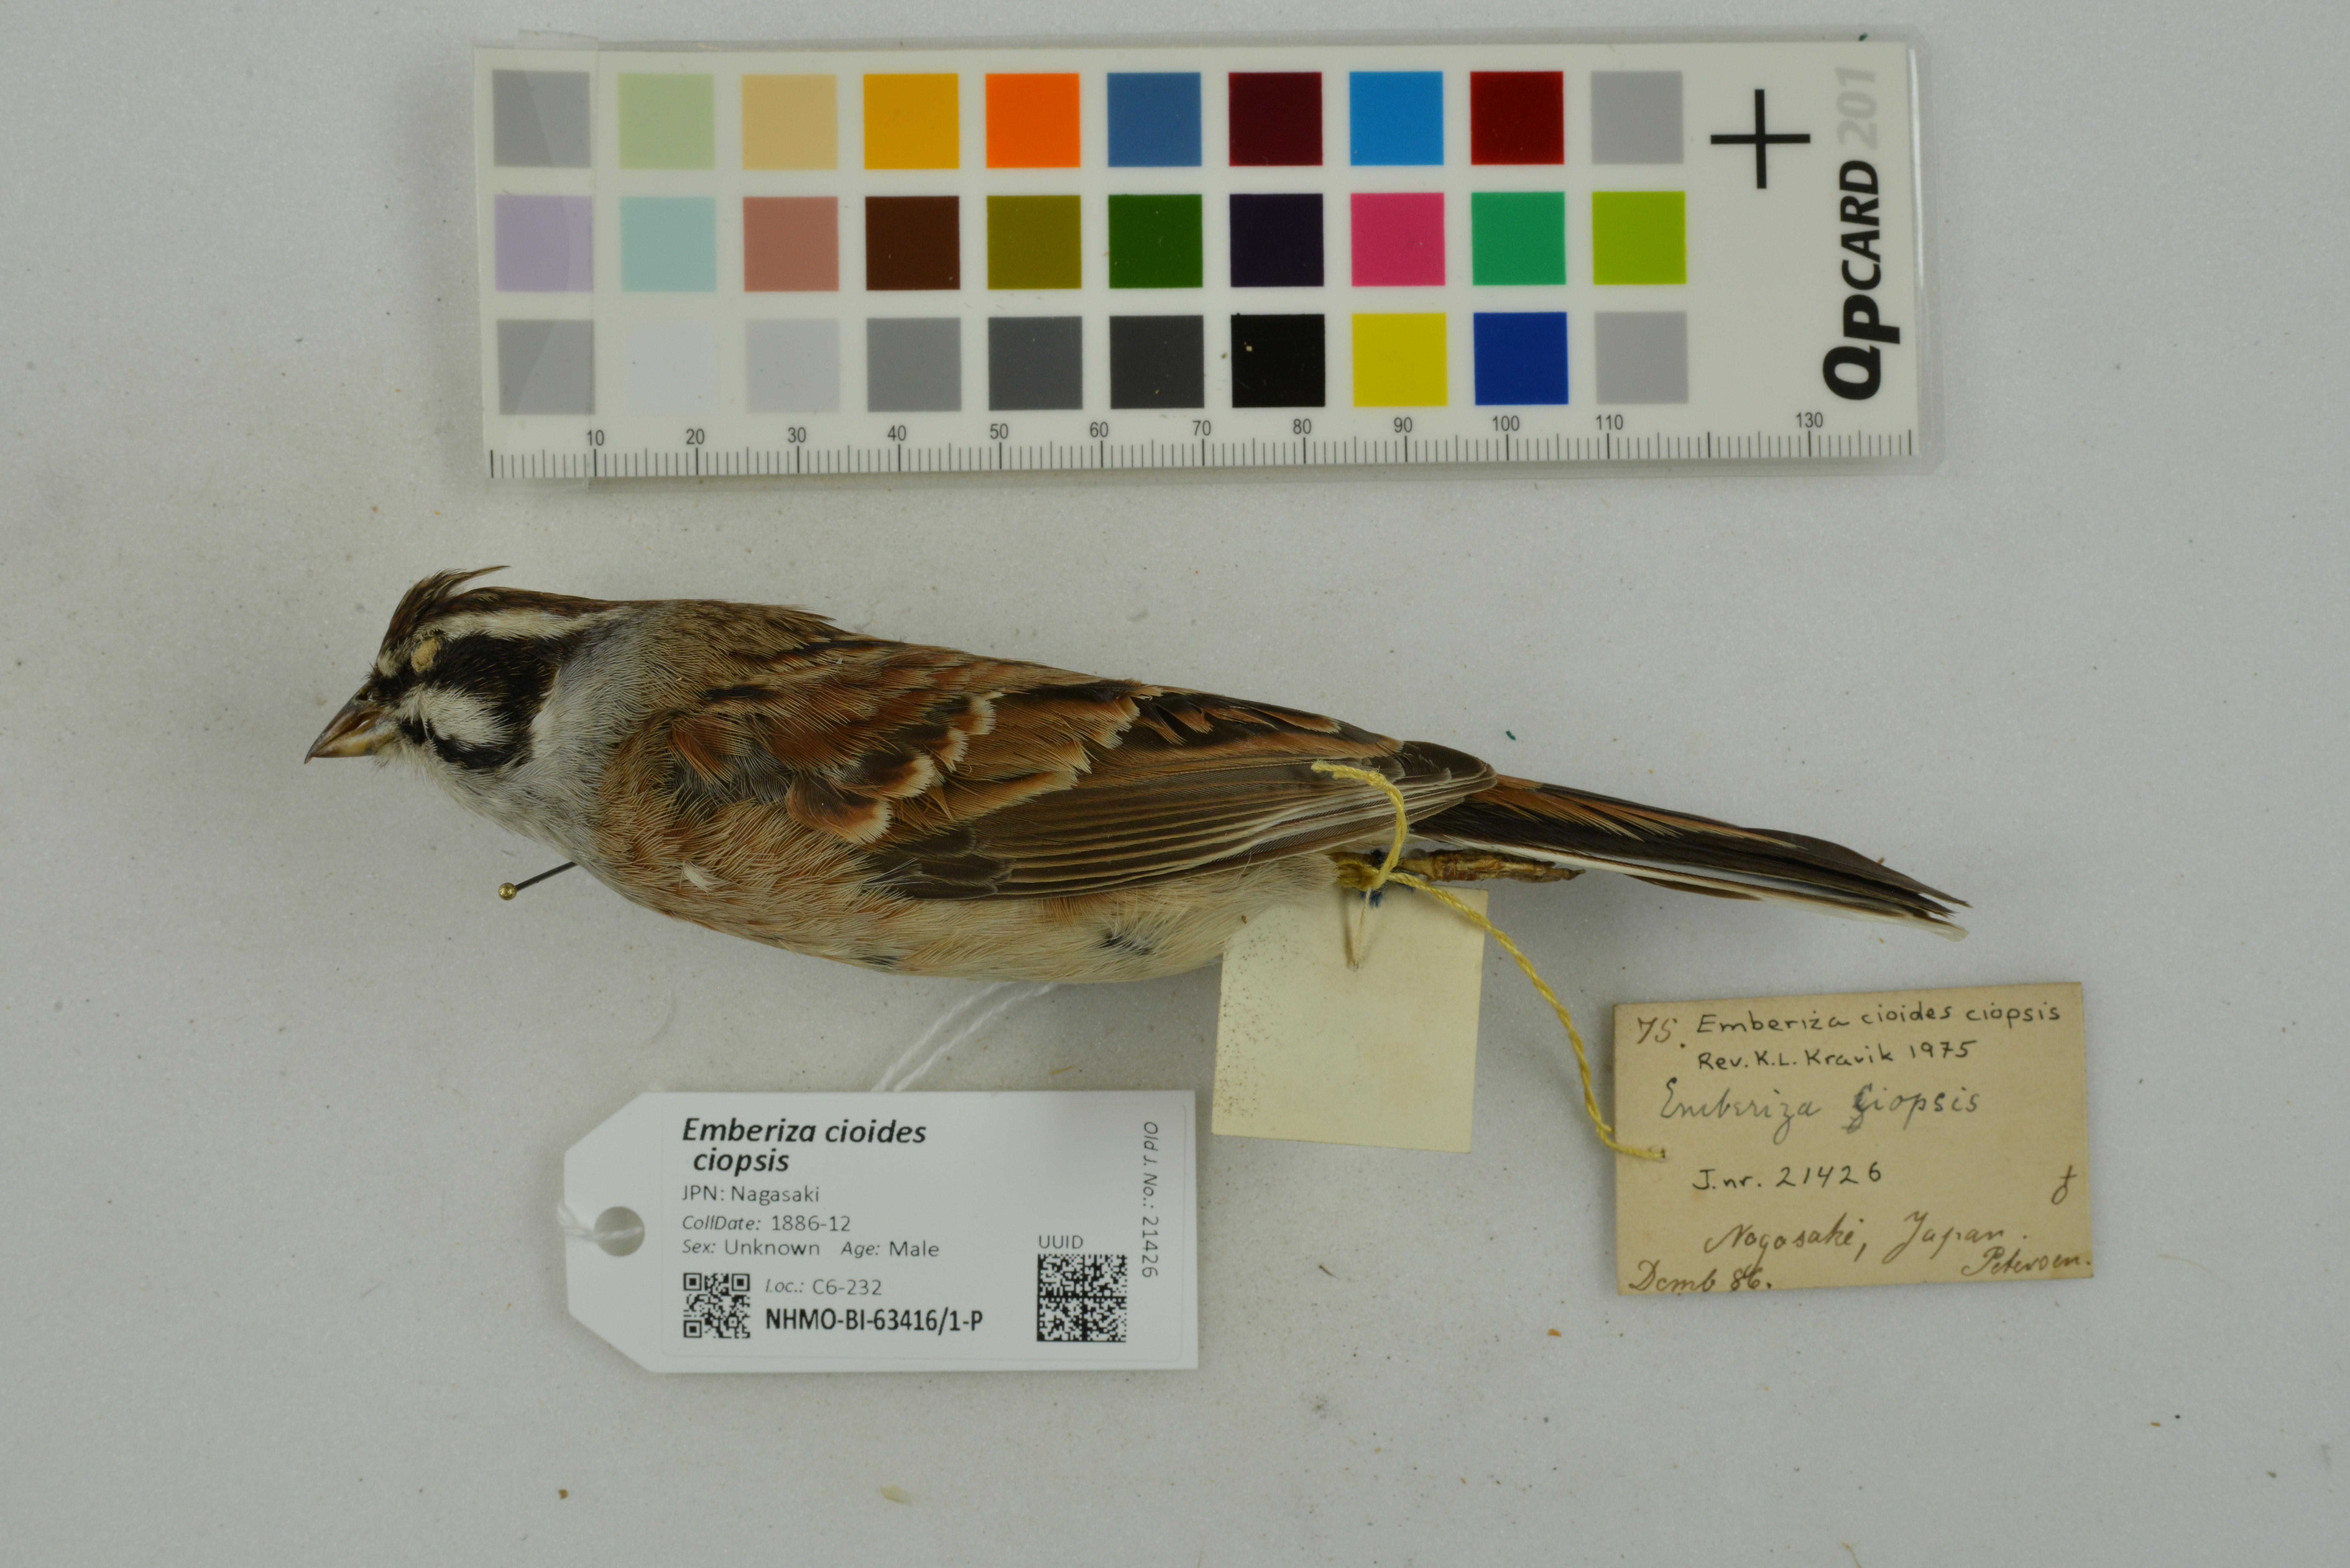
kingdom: Animalia
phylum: Chordata
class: Aves
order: Passeriformes
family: Emberizidae
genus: Emberiza
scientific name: Emberiza cioides
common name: Meadow bunting
